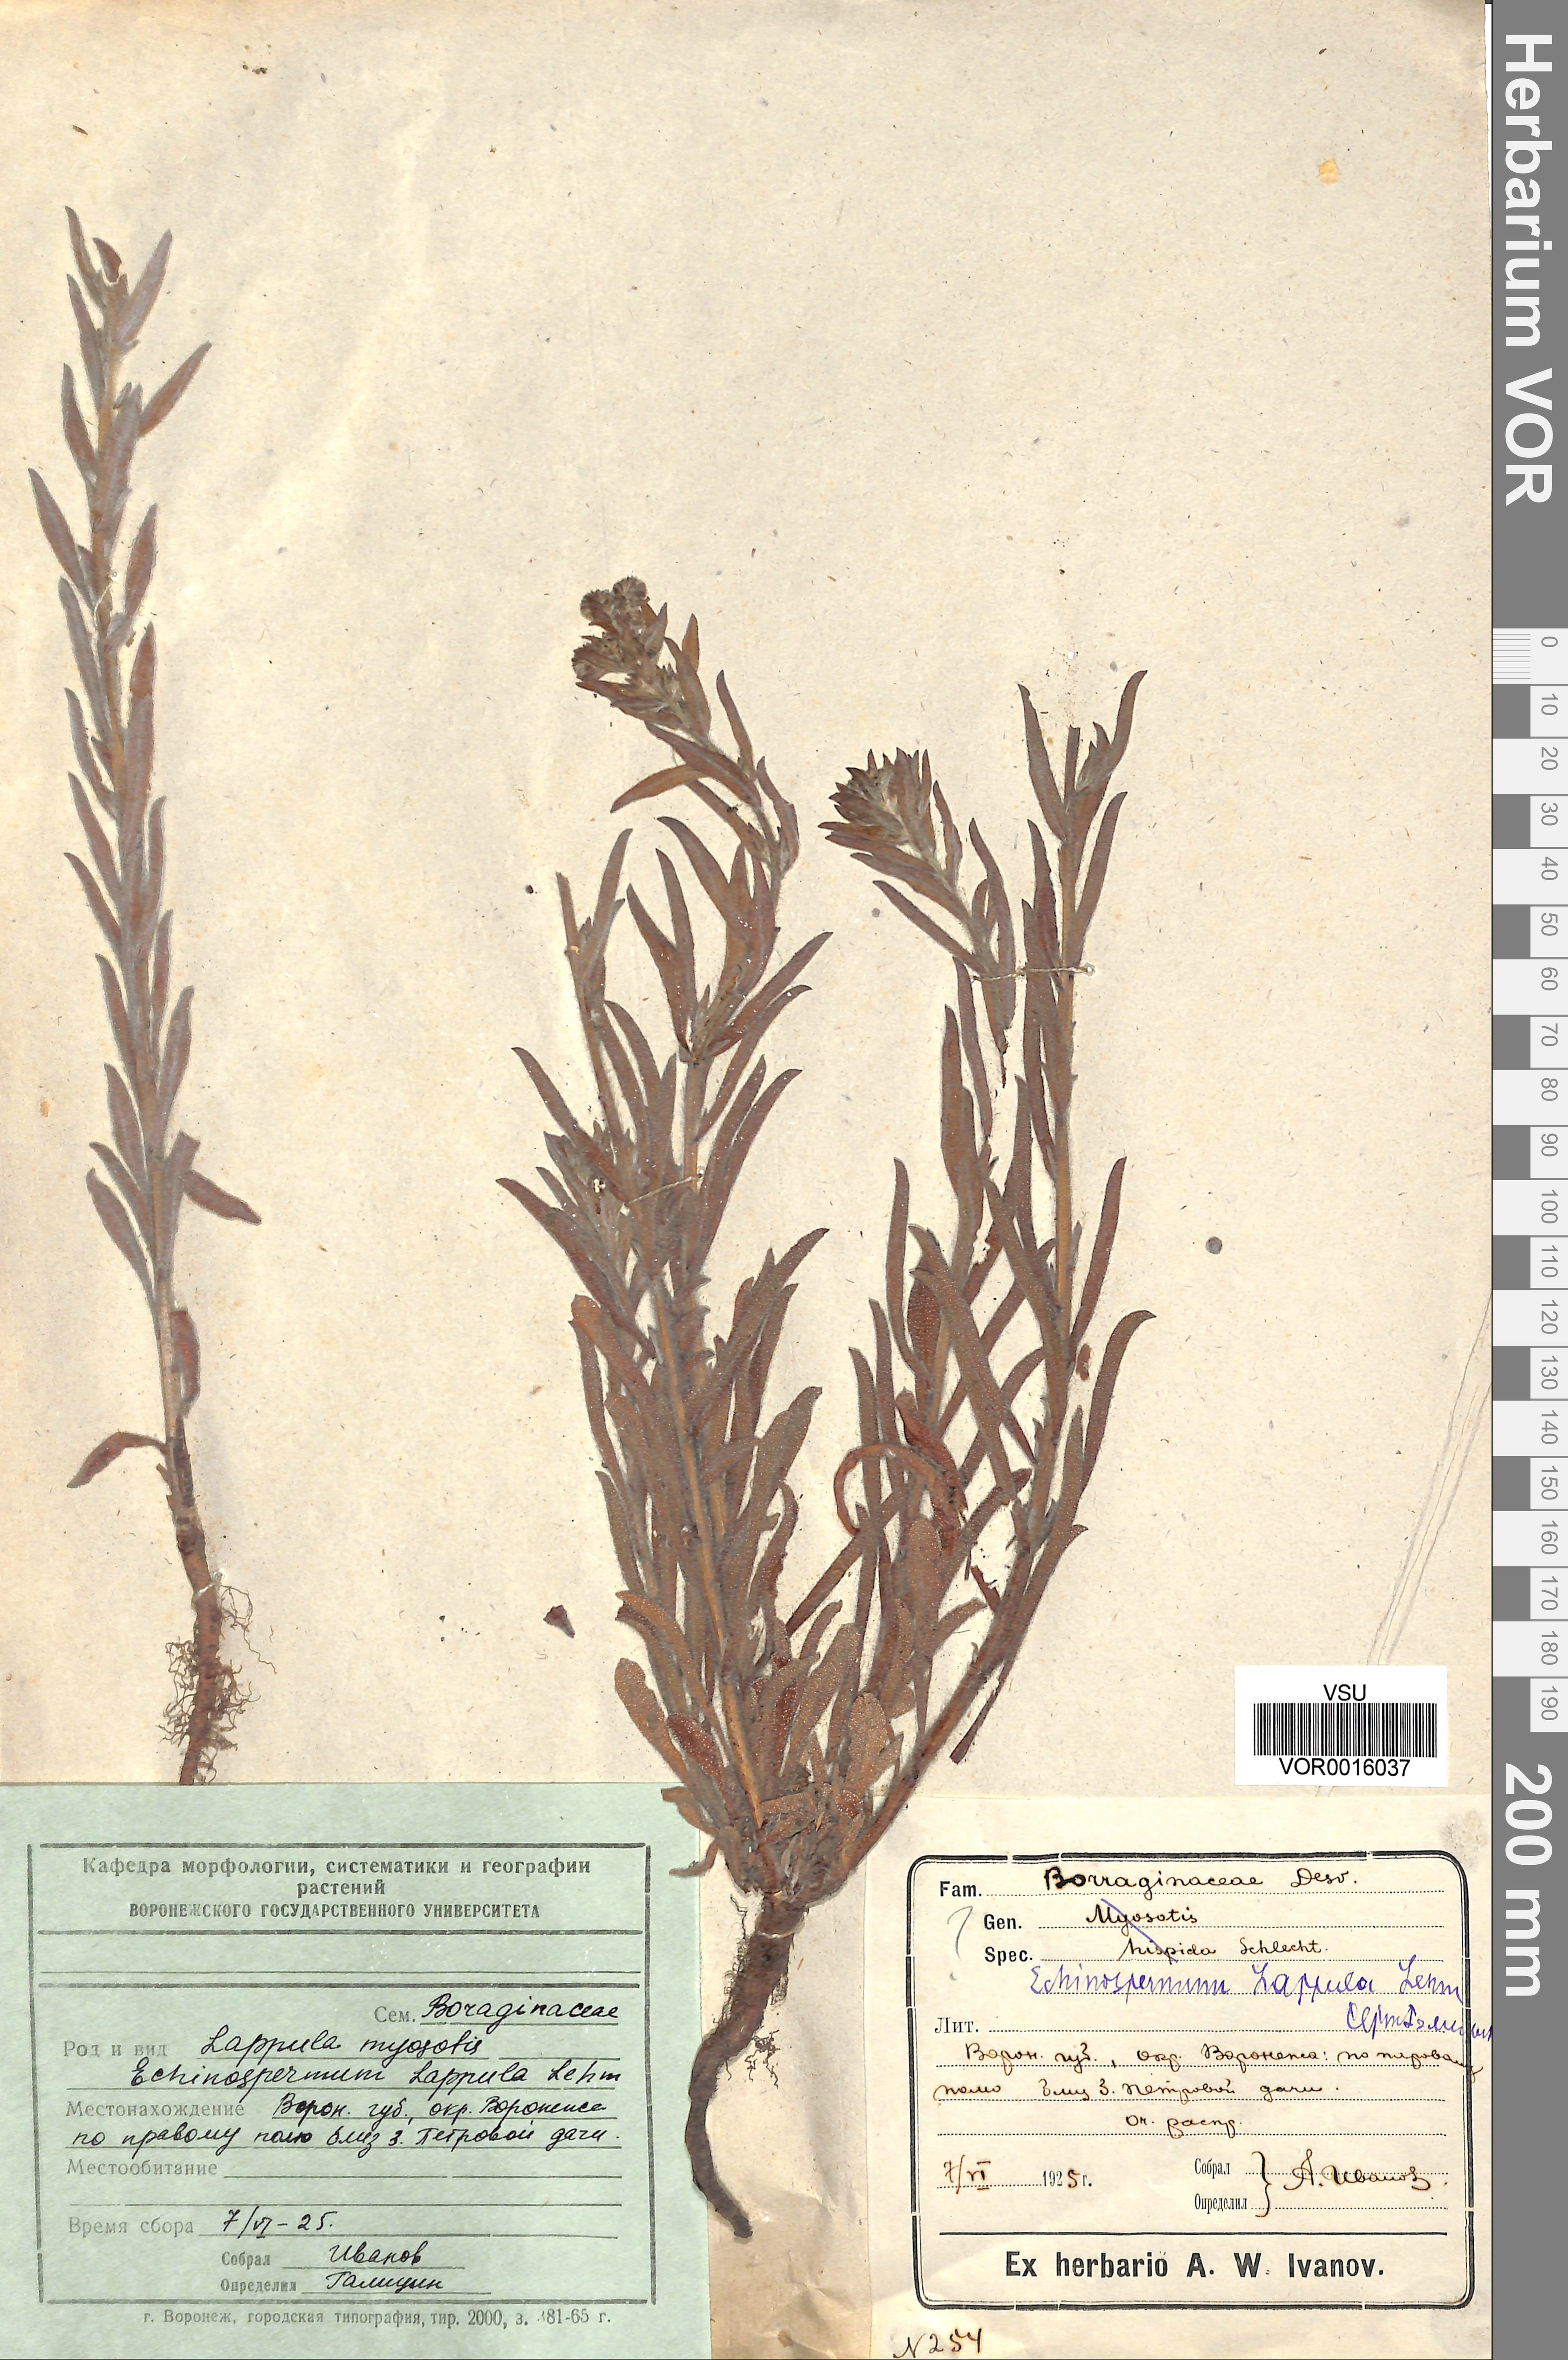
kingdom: Plantae
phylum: Tracheophyta
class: Magnoliopsida
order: Boraginales
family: Boraginaceae
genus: Lappula
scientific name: Lappula squarrosa
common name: European stickseed
